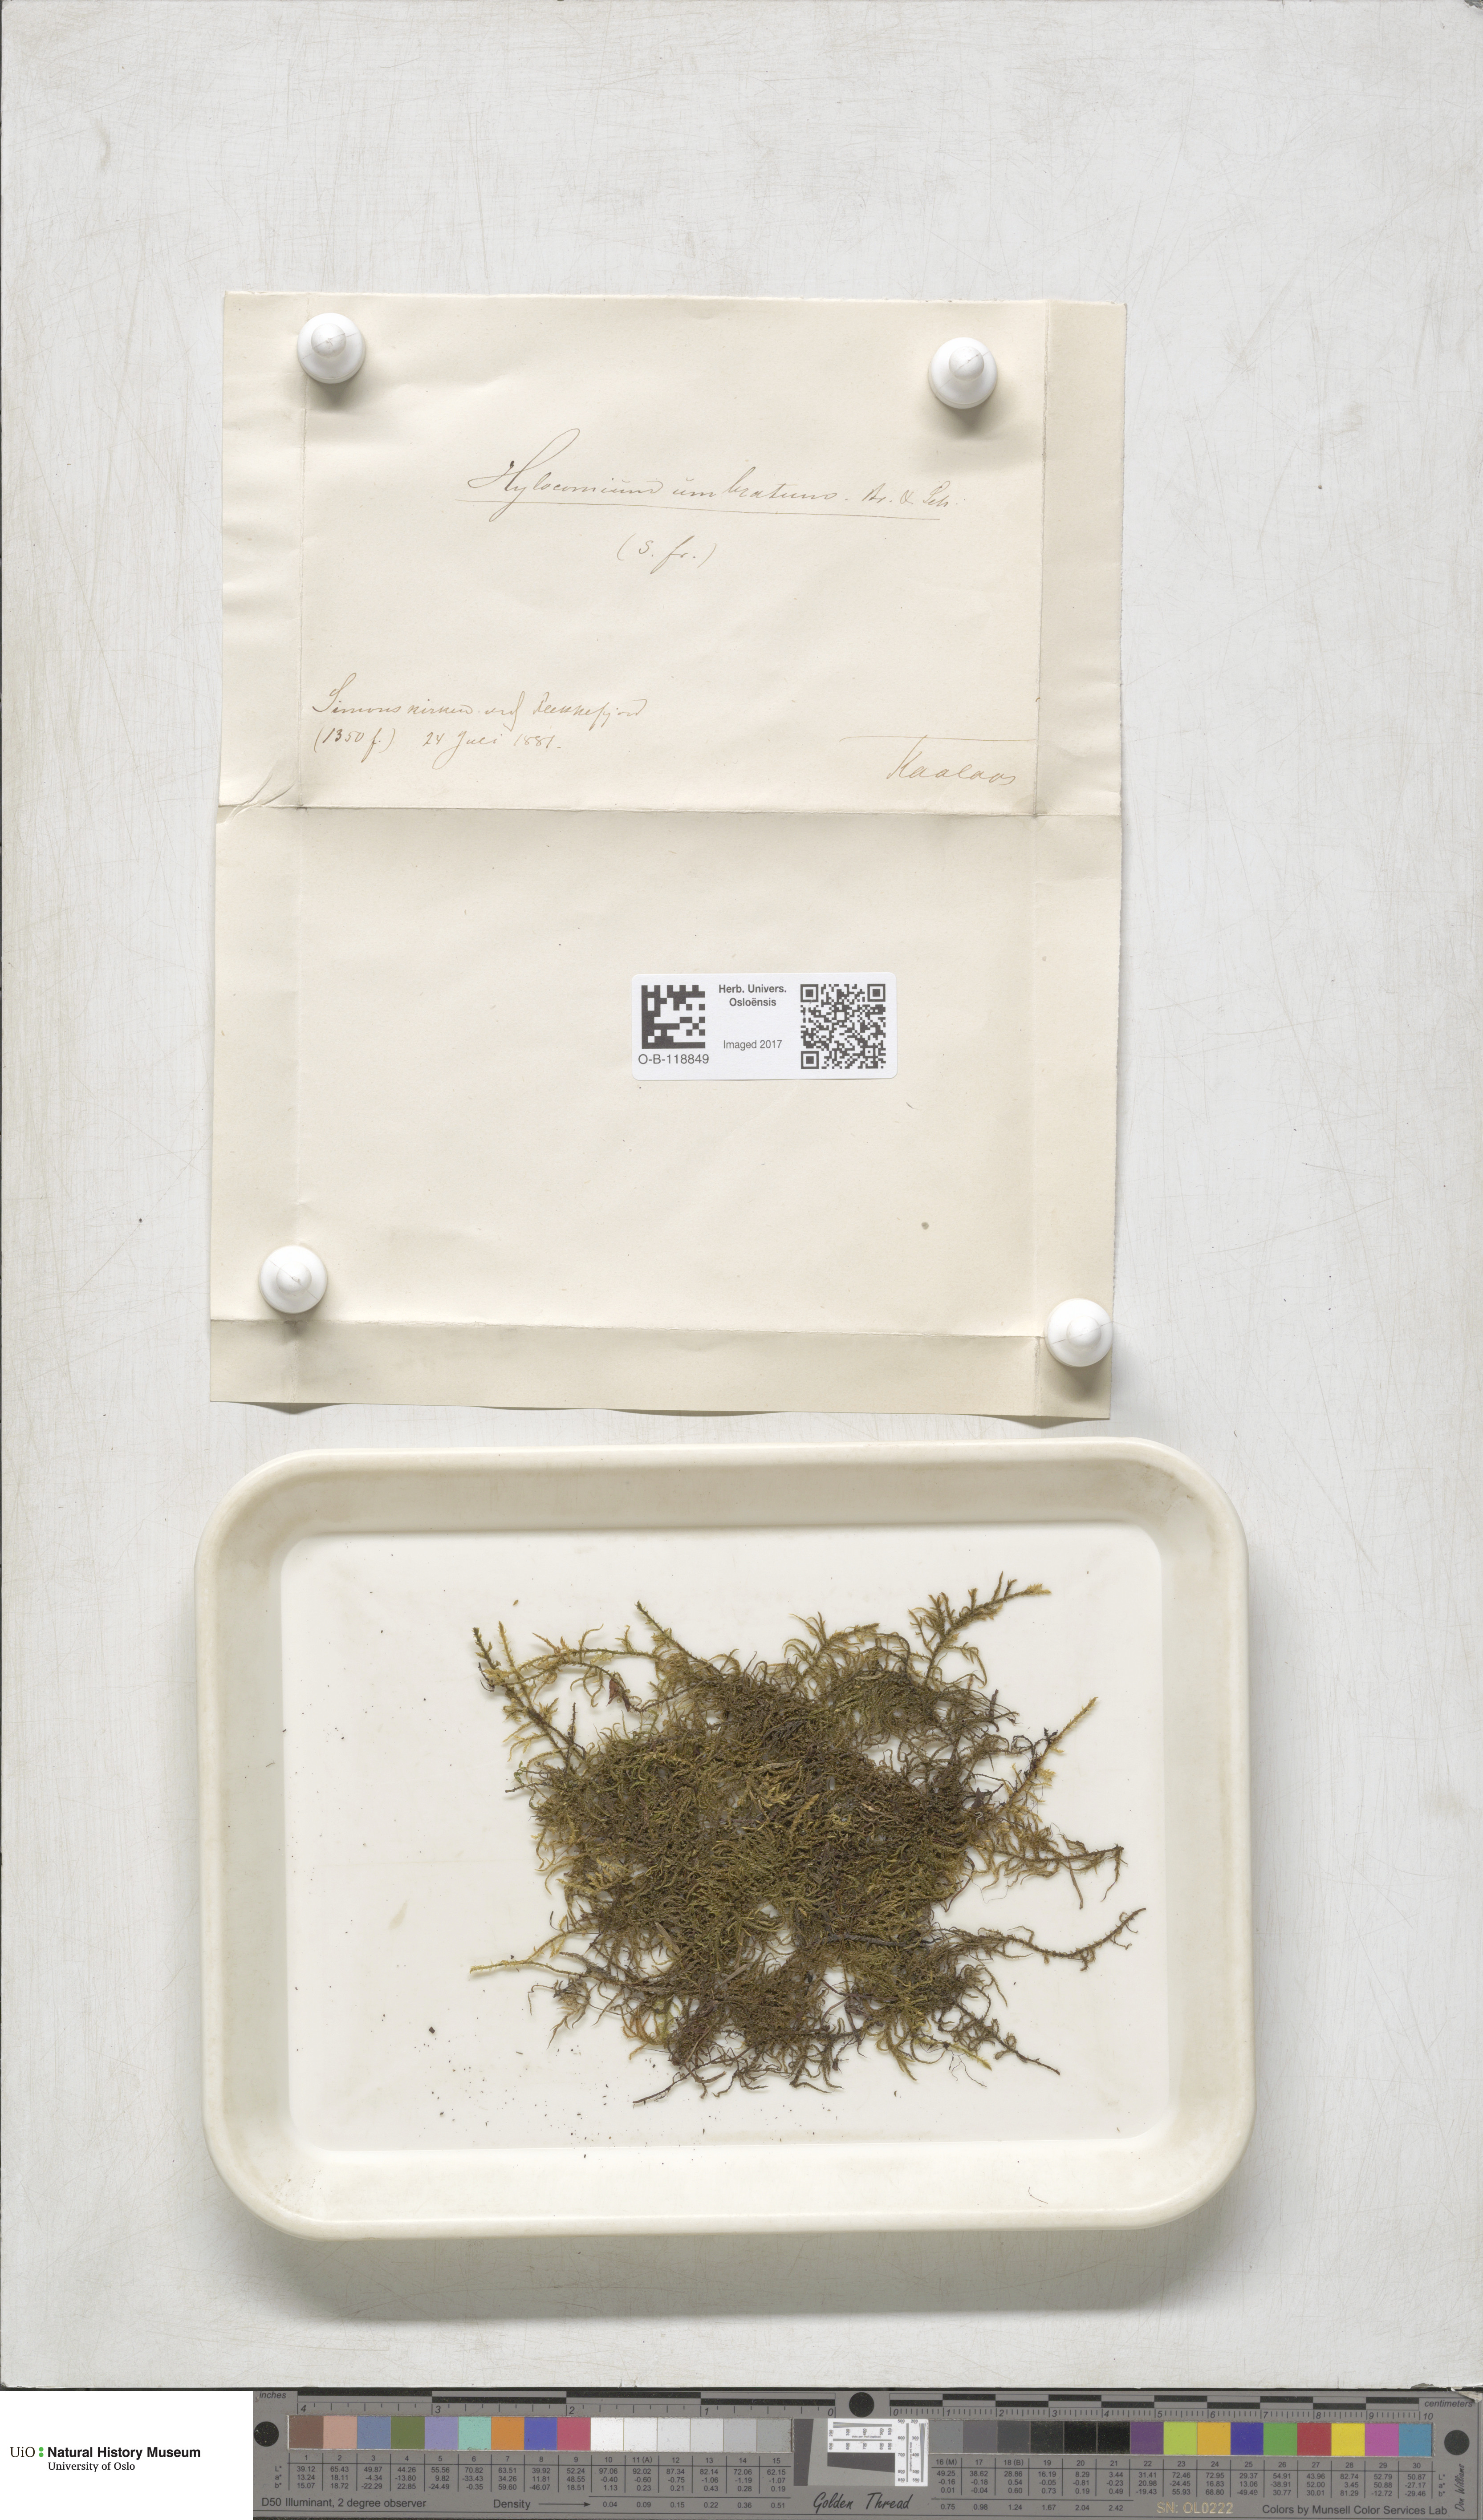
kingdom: Plantae
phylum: Bryophyta
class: Bryopsida
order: Hypnales
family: Hylocomiaceae
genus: Hylocomiastrum
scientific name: Hylocomiastrum umbratum
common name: Shaded woods moss
